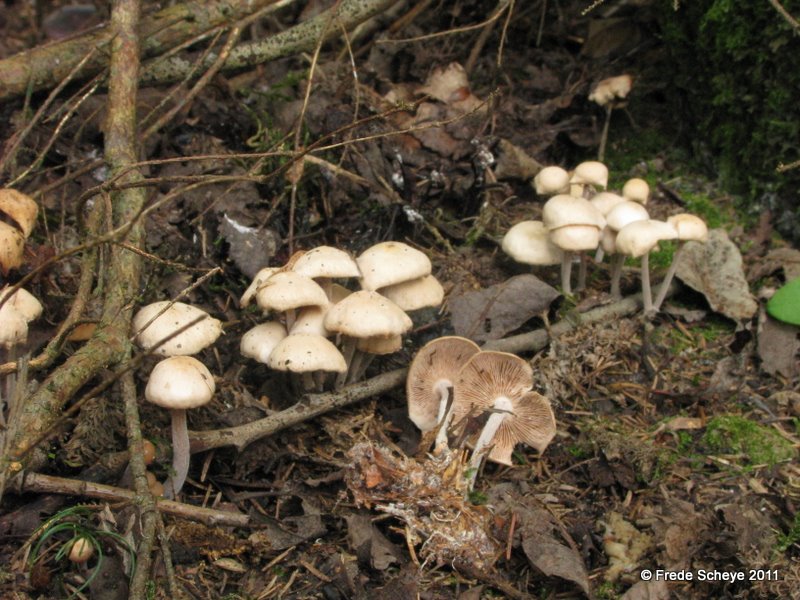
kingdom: Fungi
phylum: Basidiomycota
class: Agaricomycetes
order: Agaricales
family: Omphalotaceae
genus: Collybiopsis
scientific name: Collybiopsis confluens
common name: knippe-fladhat
